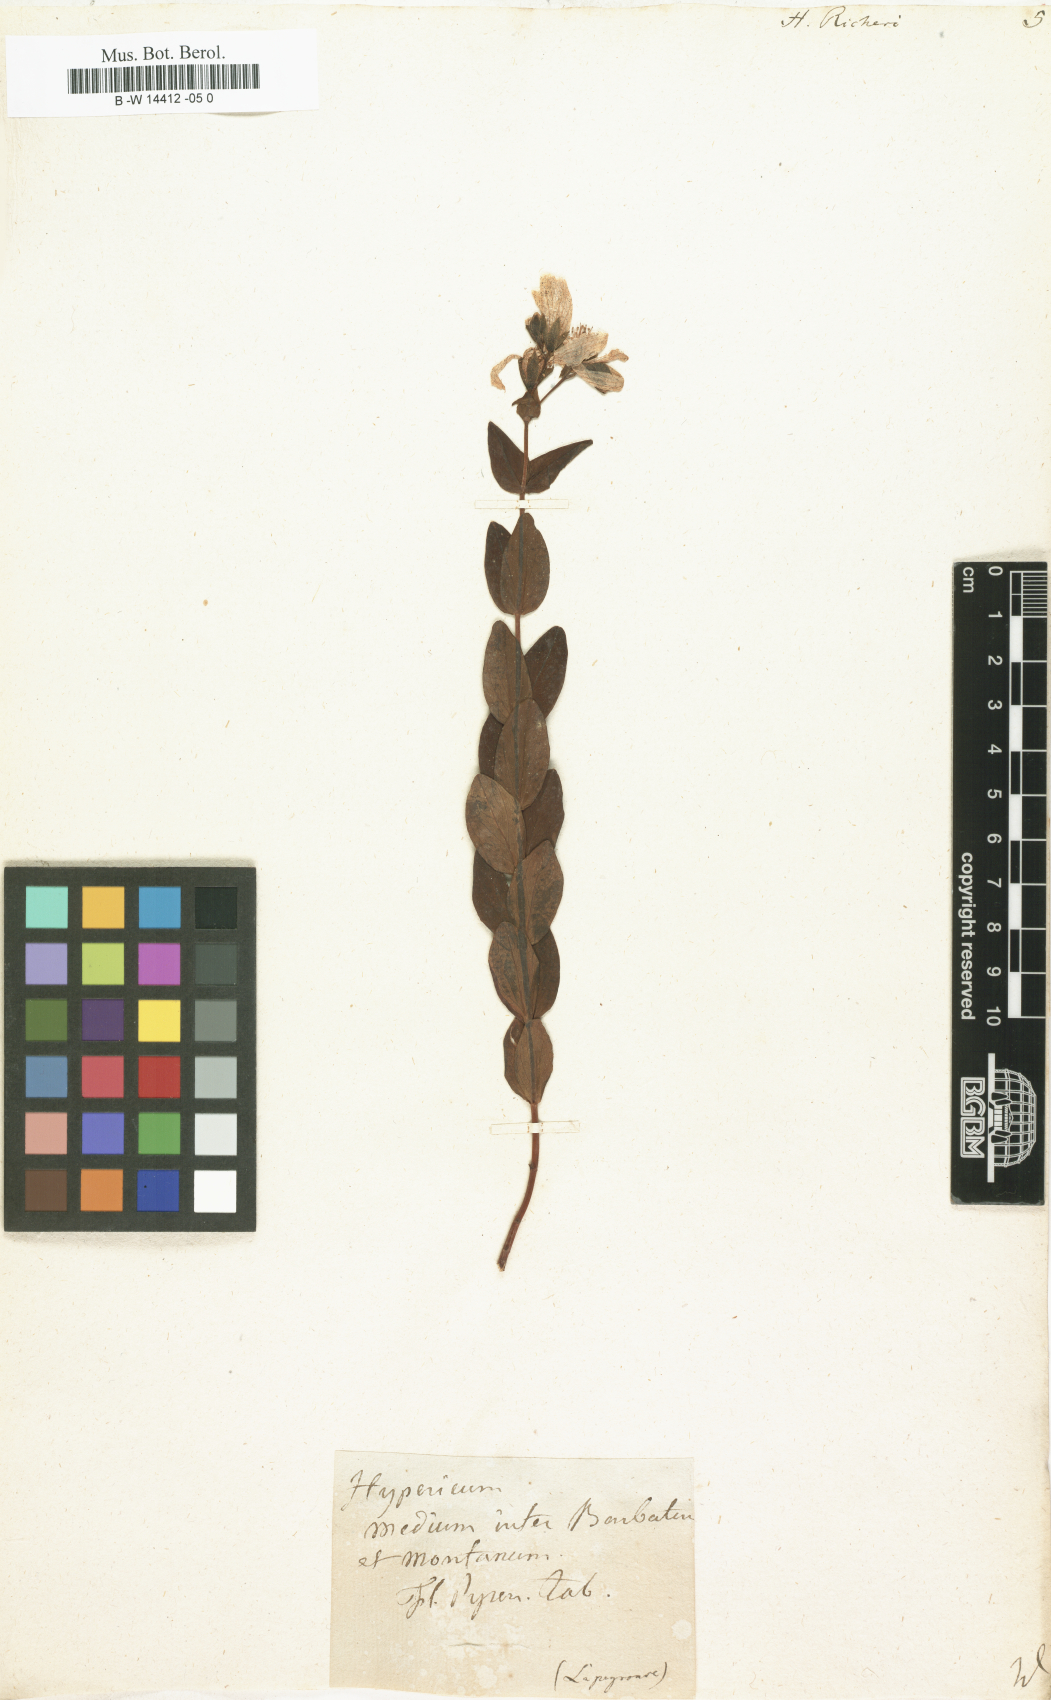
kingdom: Plantae
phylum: Tracheophyta
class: Magnoliopsida
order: Malpighiales
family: Hypericaceae
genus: Hypericum
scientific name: Hypericum richeri
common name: Alpine st john's-wort
